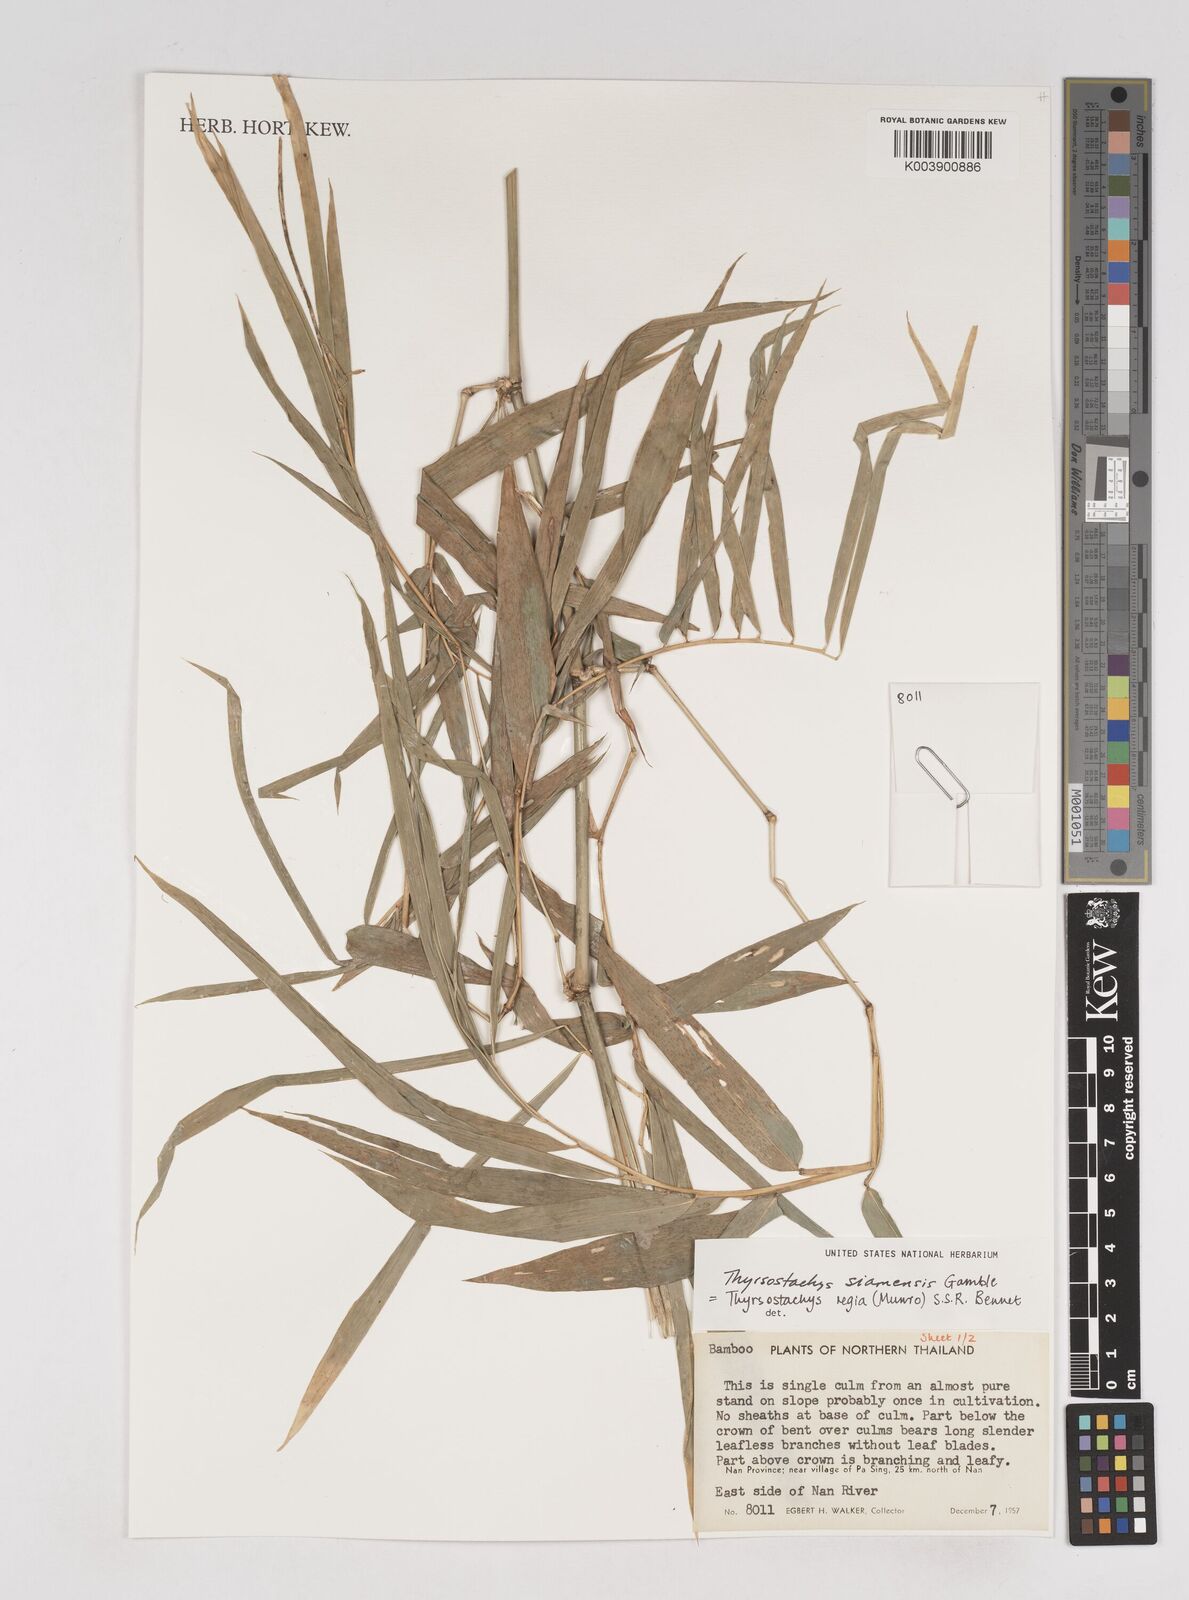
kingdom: Plantae
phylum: Tracheophyta
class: Liliopsida
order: Poales
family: Poaceae
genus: Thyrsostachys
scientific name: Thyrsostachys siamensis
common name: Thailand bamboo
